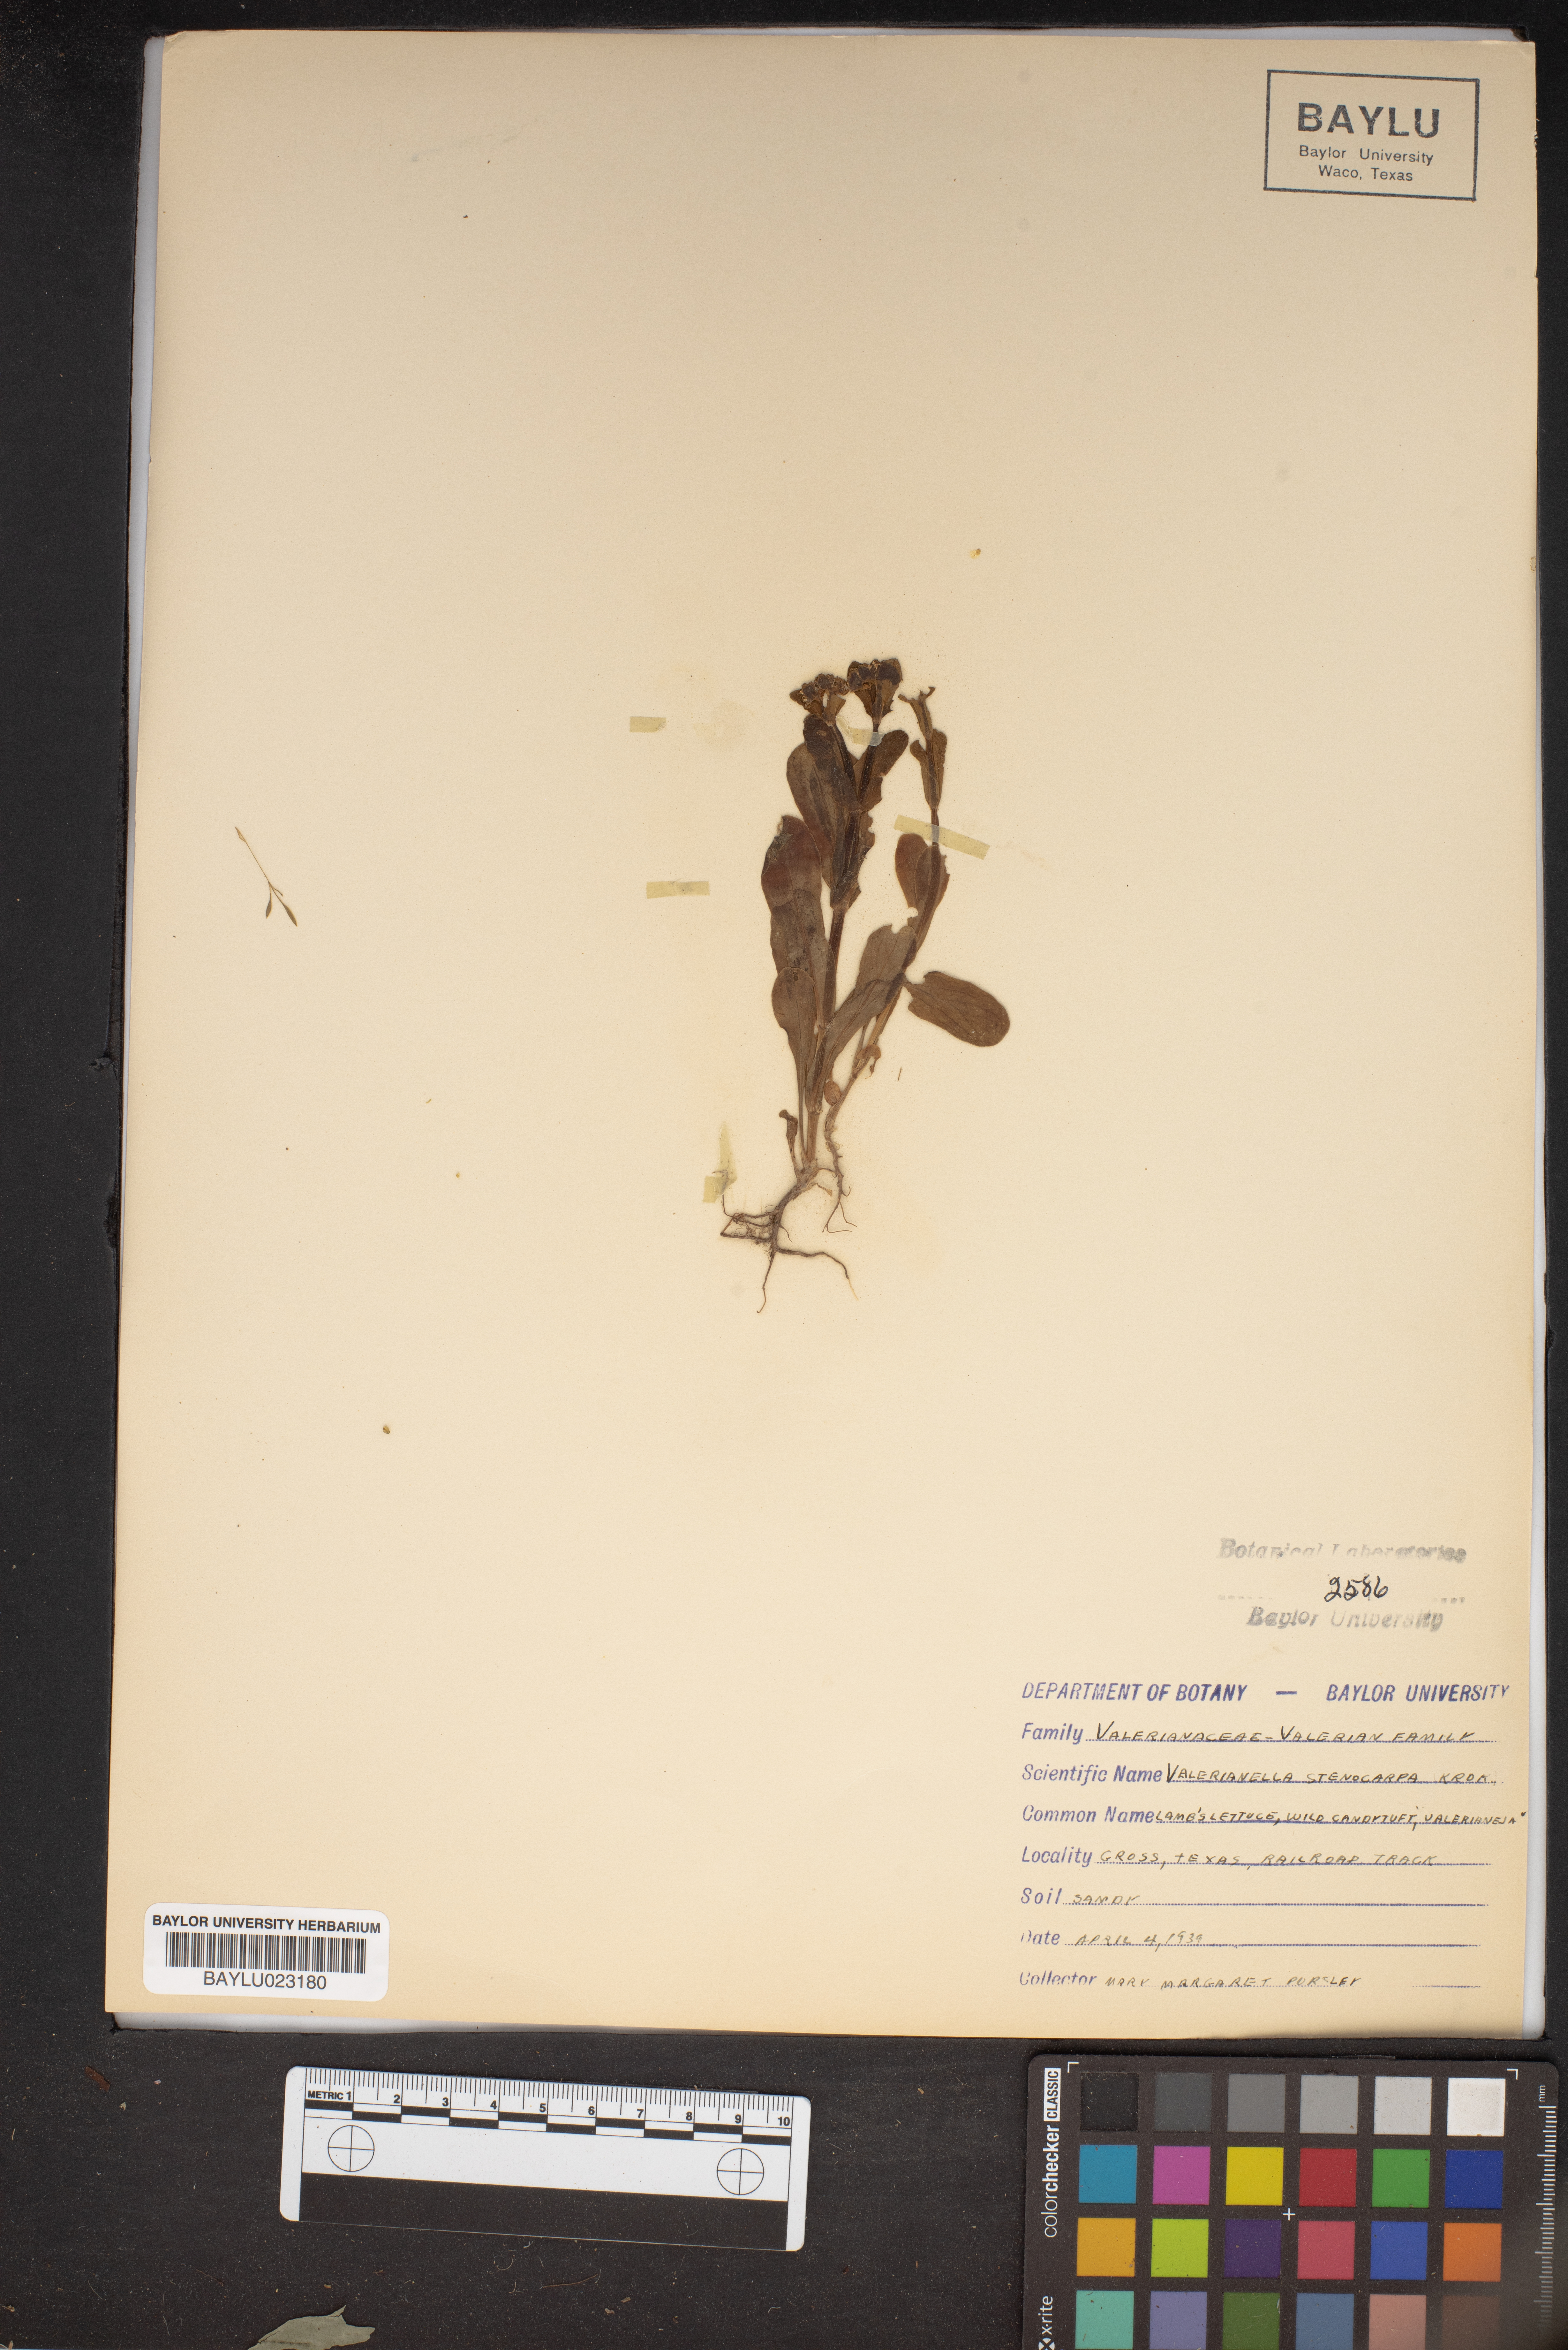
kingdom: Plantae
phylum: Tracheophyta
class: Magnoliopsida
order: Dipsacales
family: Caprifoliaceae
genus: Valerianella
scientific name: Valerianella stenocarpa
